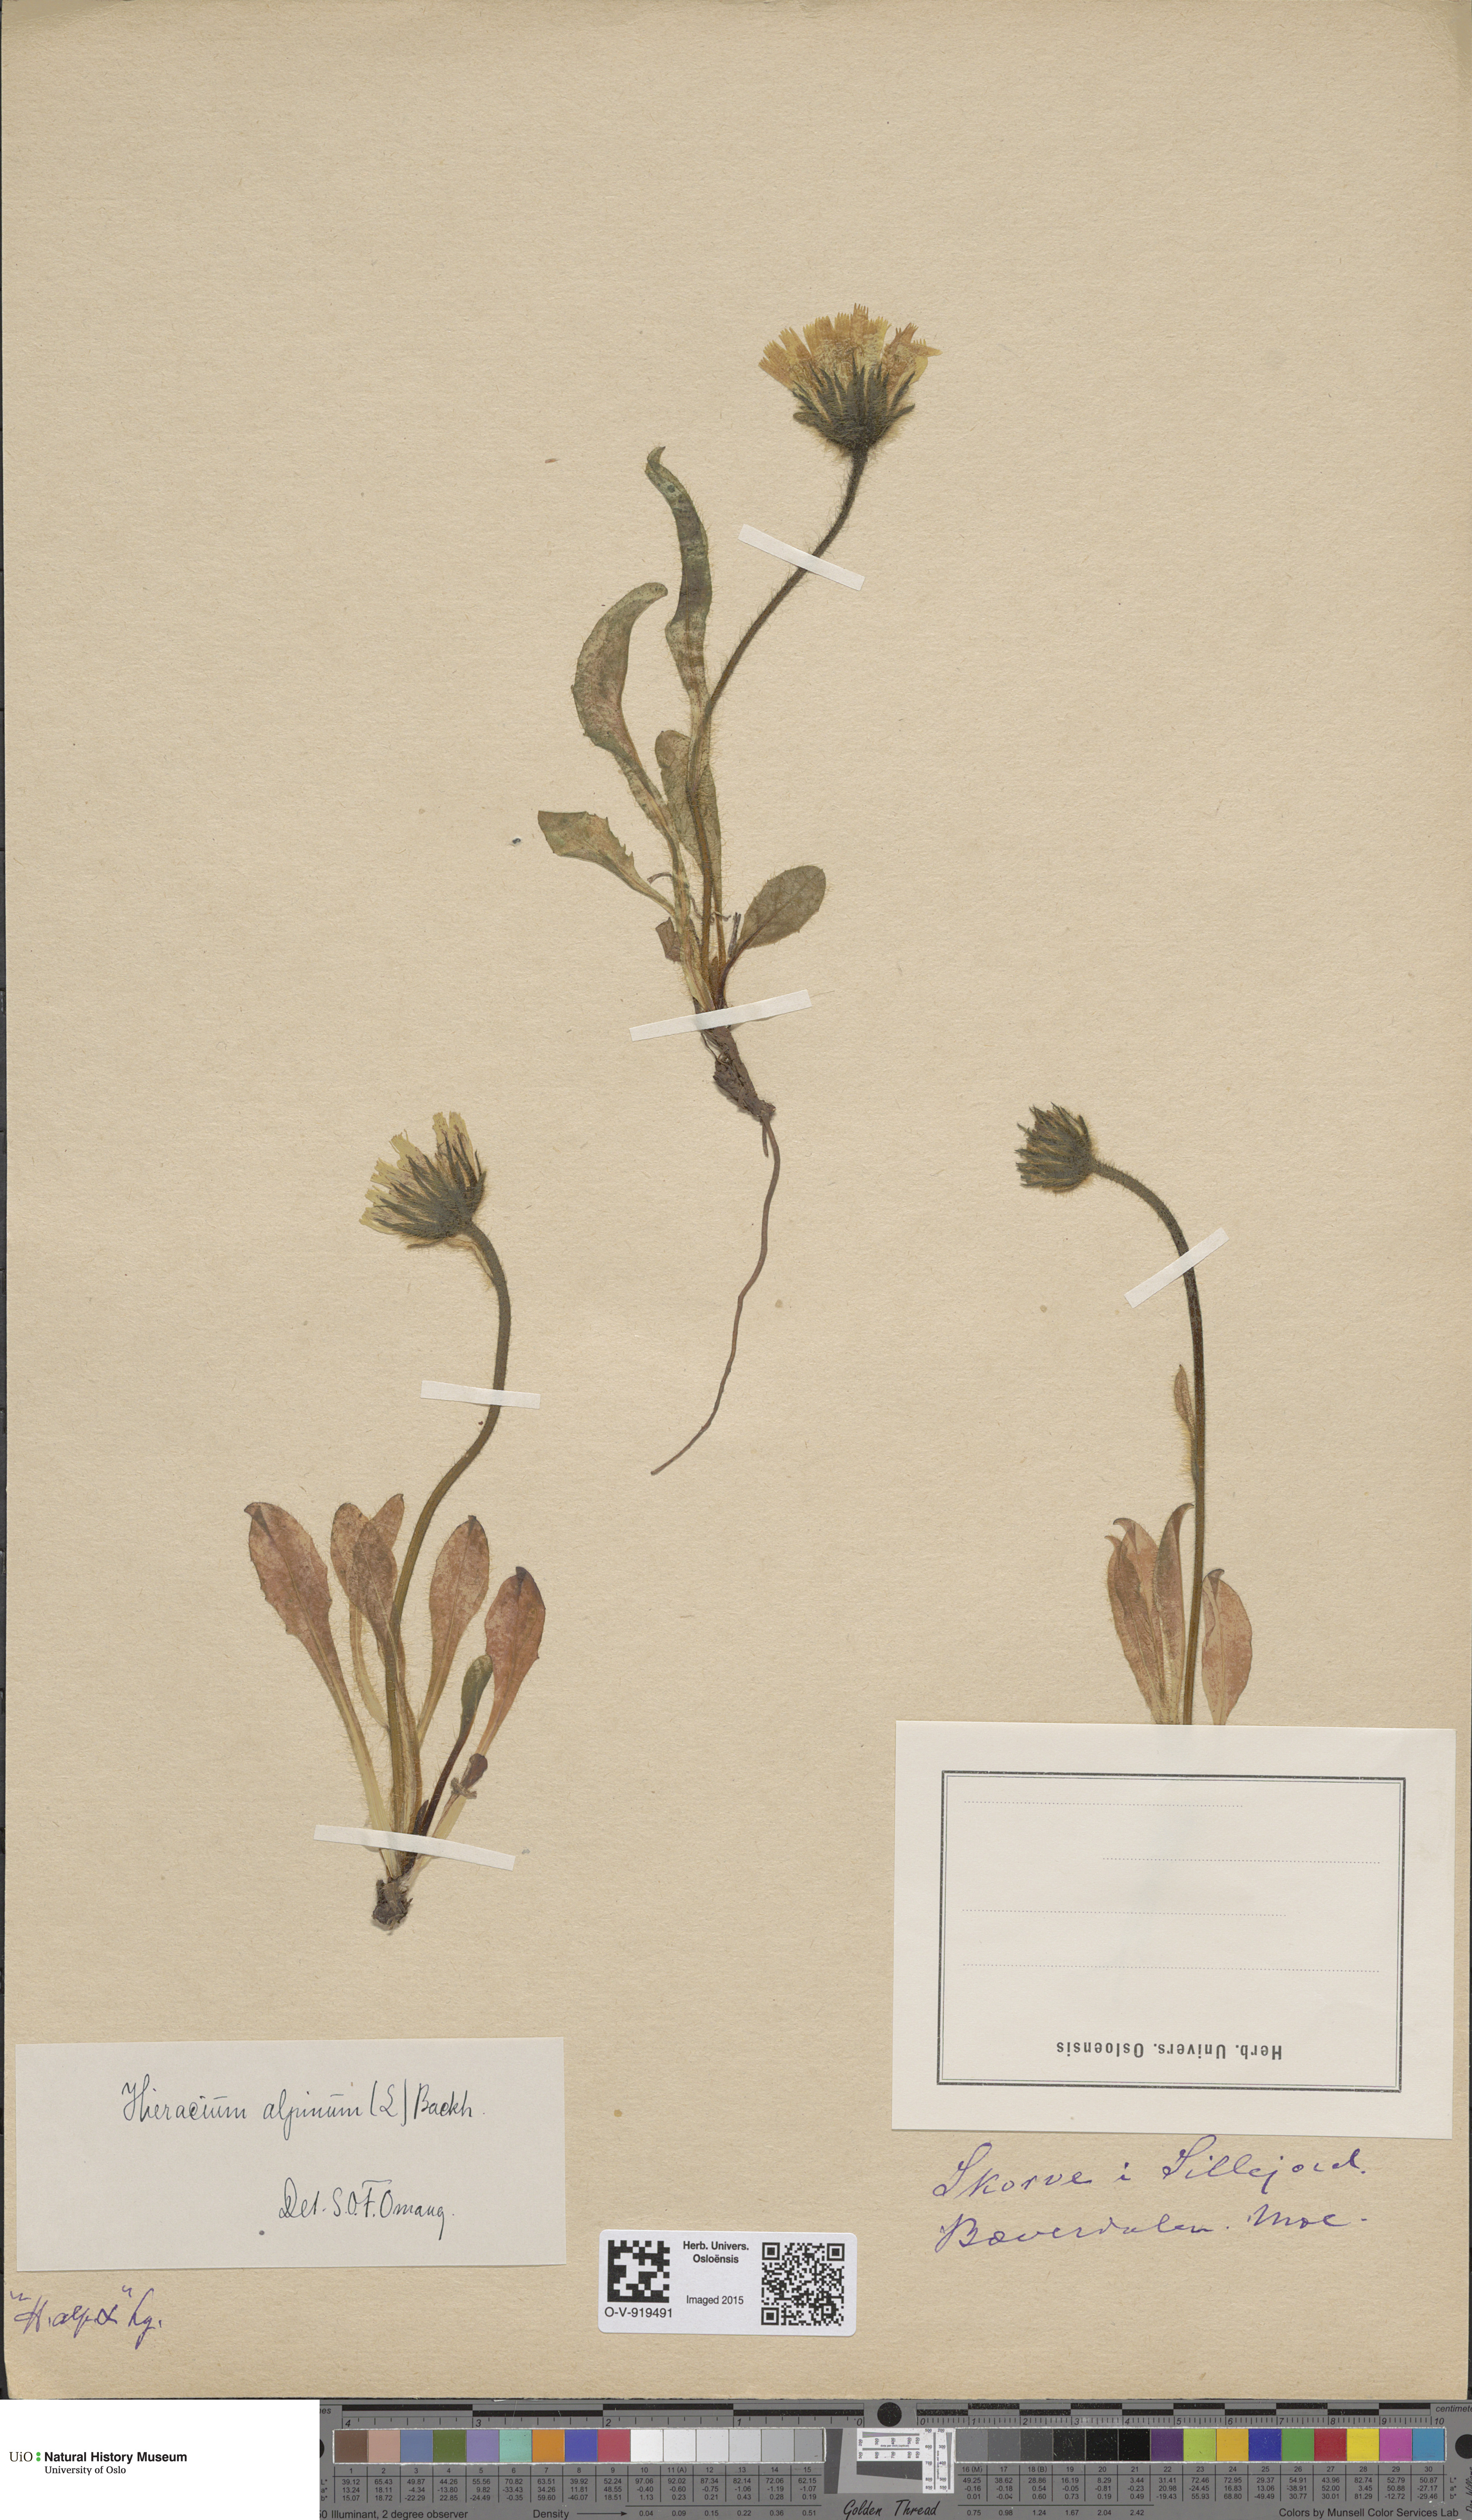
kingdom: Plantae
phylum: Tracheophyta
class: Magnoliopsida
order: Asterales
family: Asteraceae
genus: Hieracium
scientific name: Hieracium alpinum
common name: Alpine hawkweed
